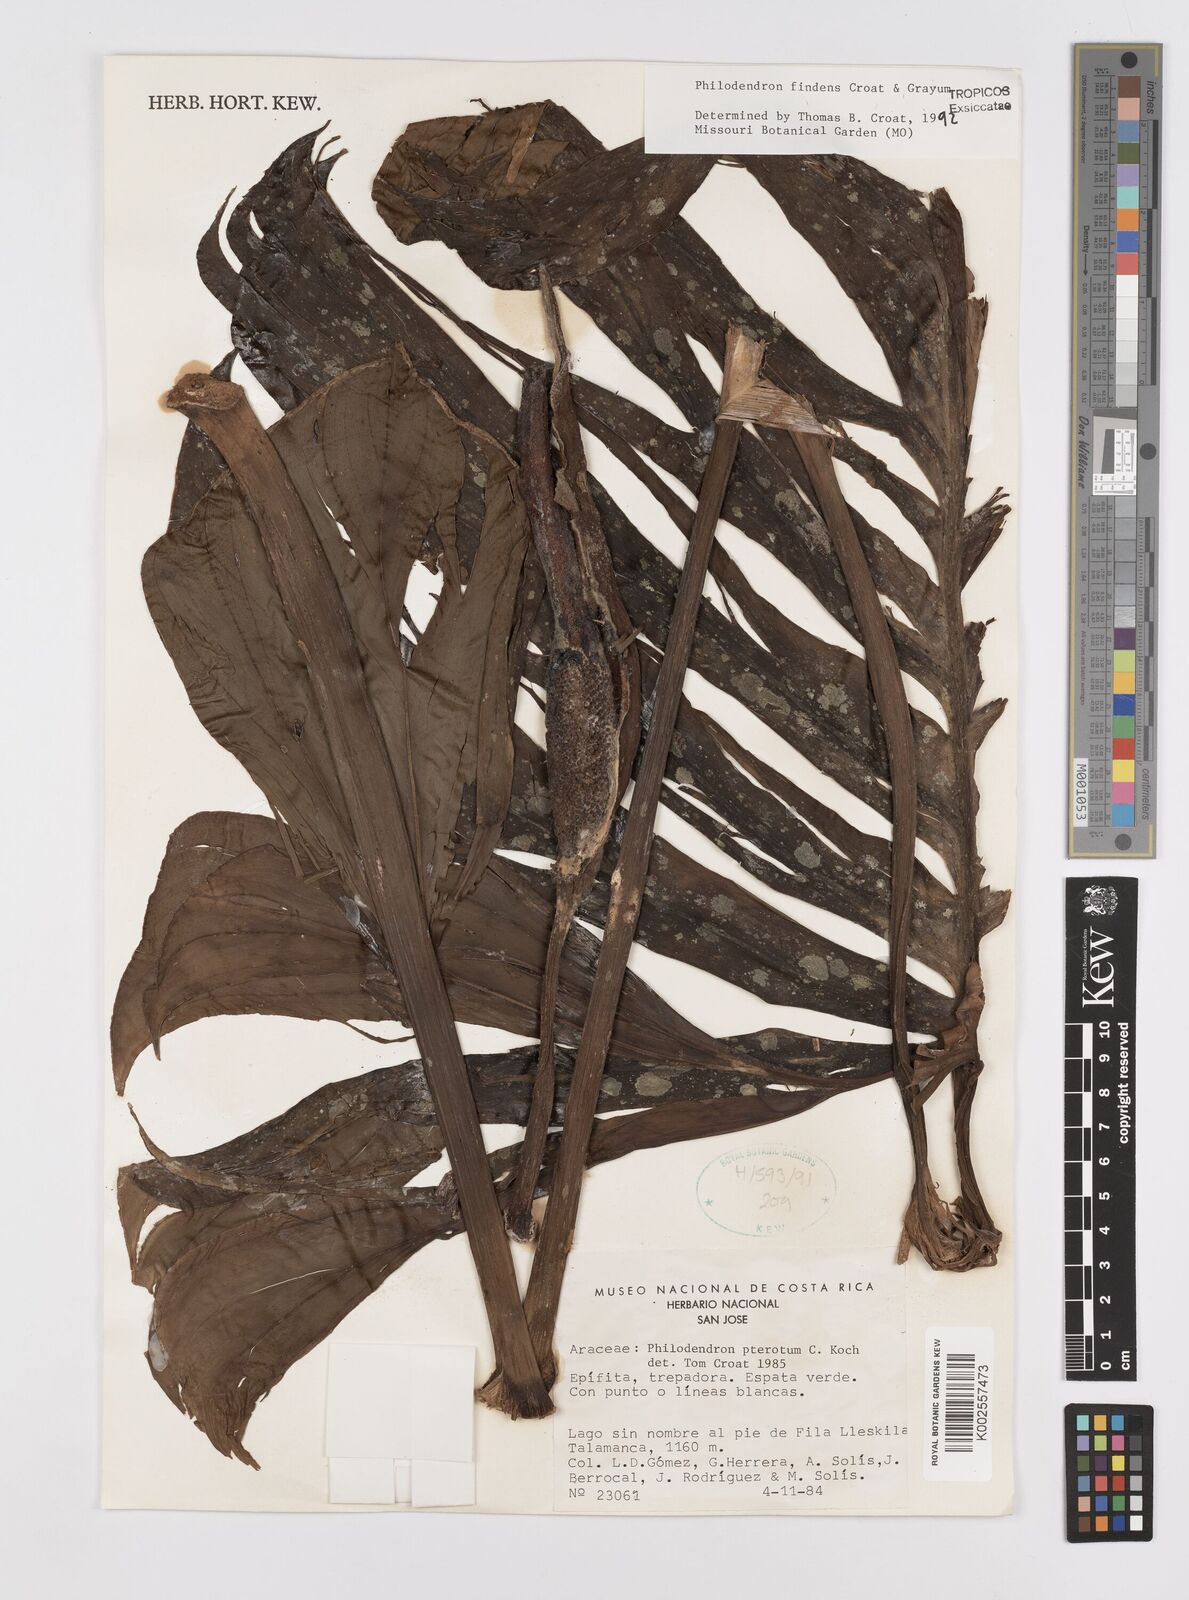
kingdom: Plantae
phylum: Tracheophyta
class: Liliopsida
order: Alismatales
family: Araceae
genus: Philodendron
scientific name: Philodendron findens
